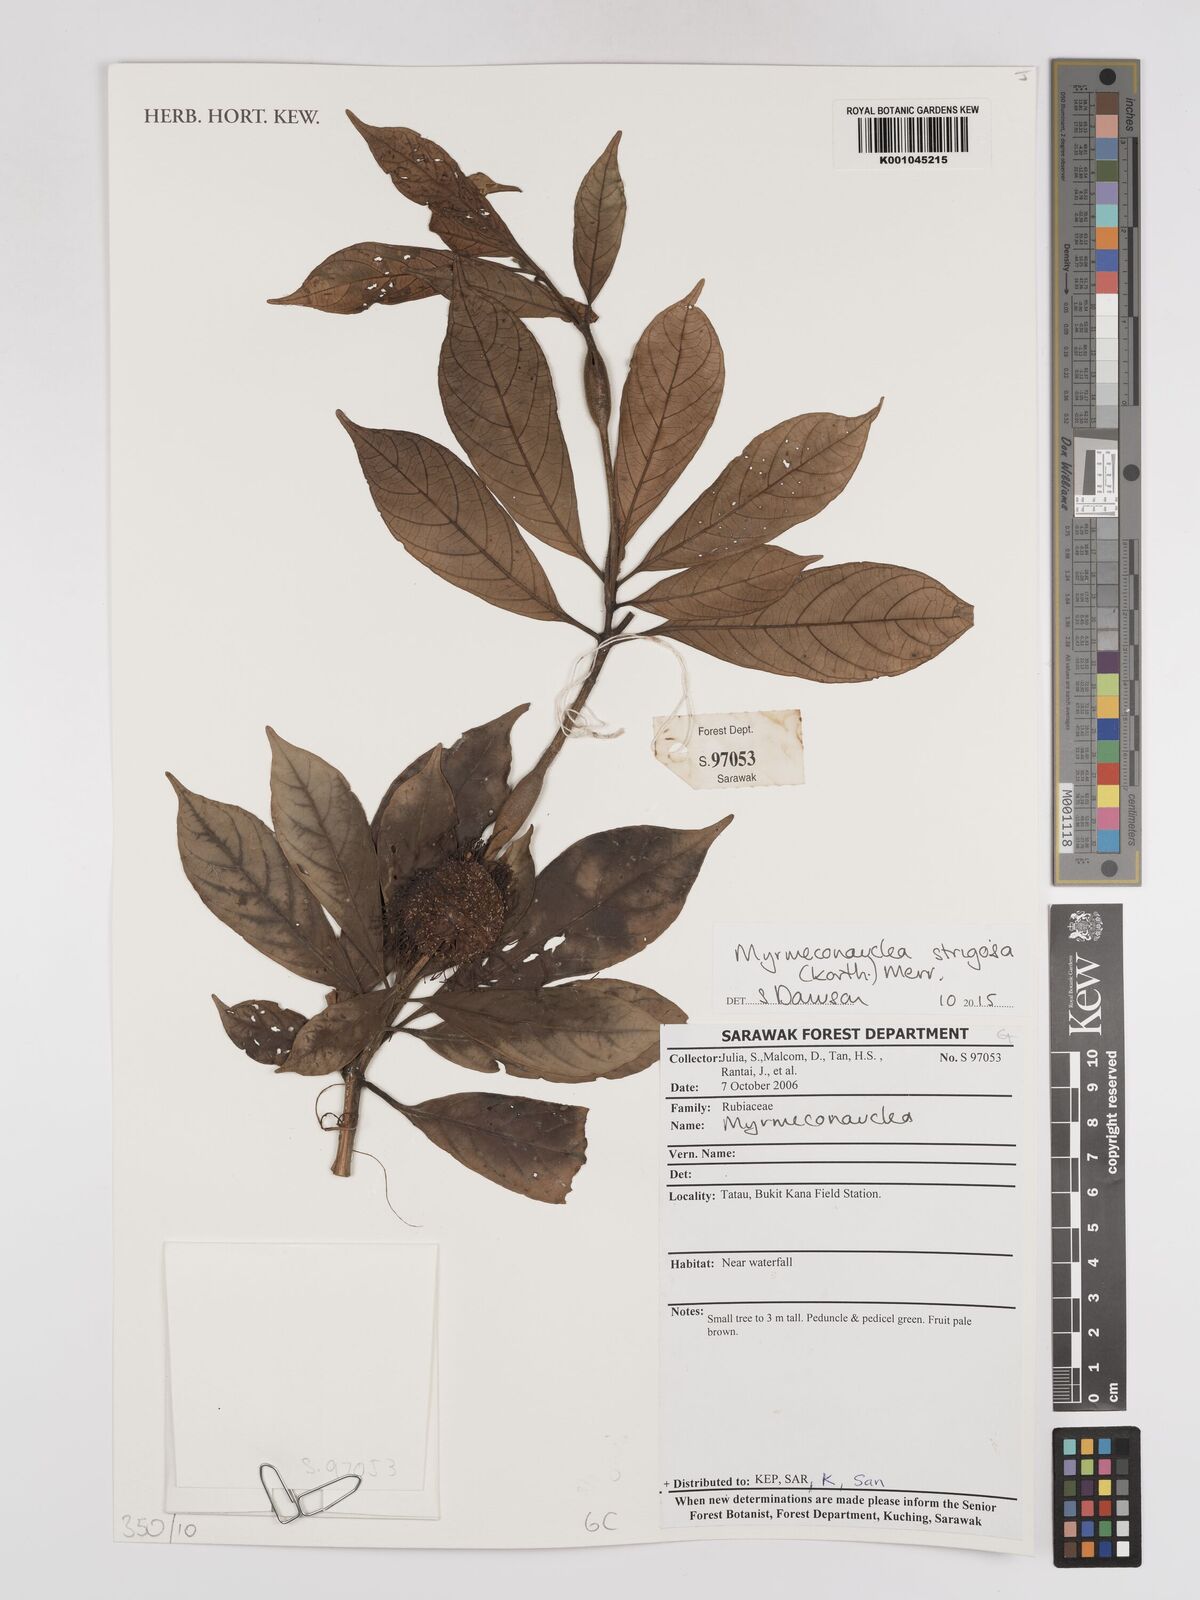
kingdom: Plantae
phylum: Tracheophyta
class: Magnoliopsida
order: Gentianales
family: Rubiaceae
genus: Myrmeconauclea
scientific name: Myrmeconauclea strigosa
